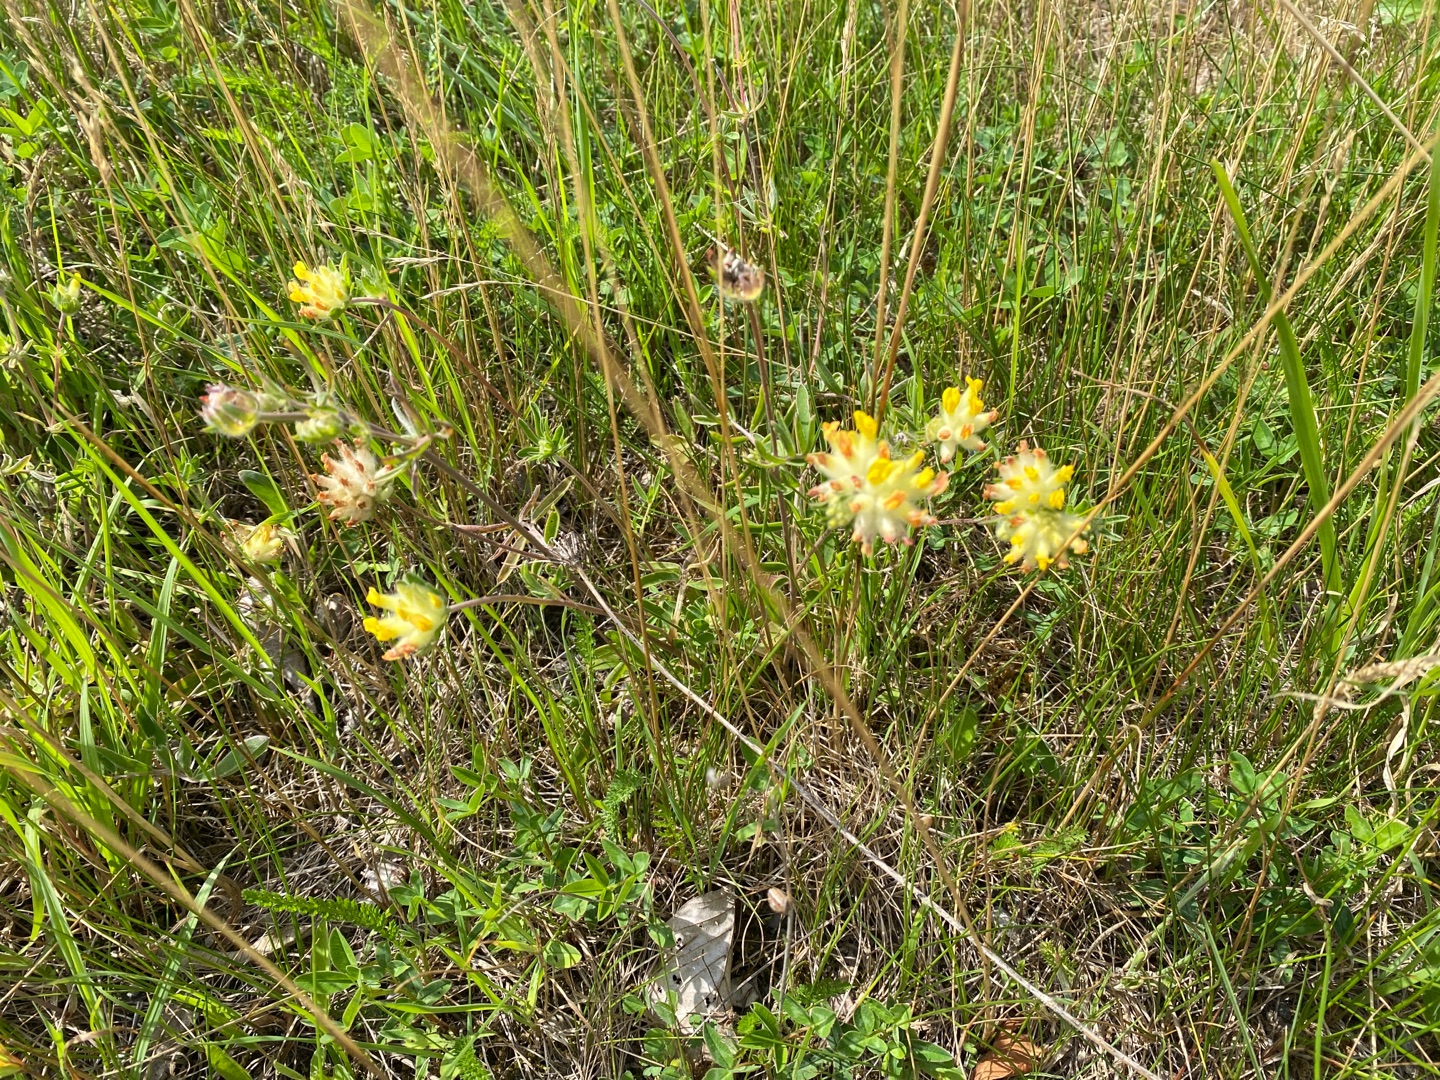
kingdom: Plantae
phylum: Tracheophyta
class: Magnoliopsida
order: Fabales
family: Fabaceae
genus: Anthyllis
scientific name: Anthyllis vulneraria
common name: Rundbælg
